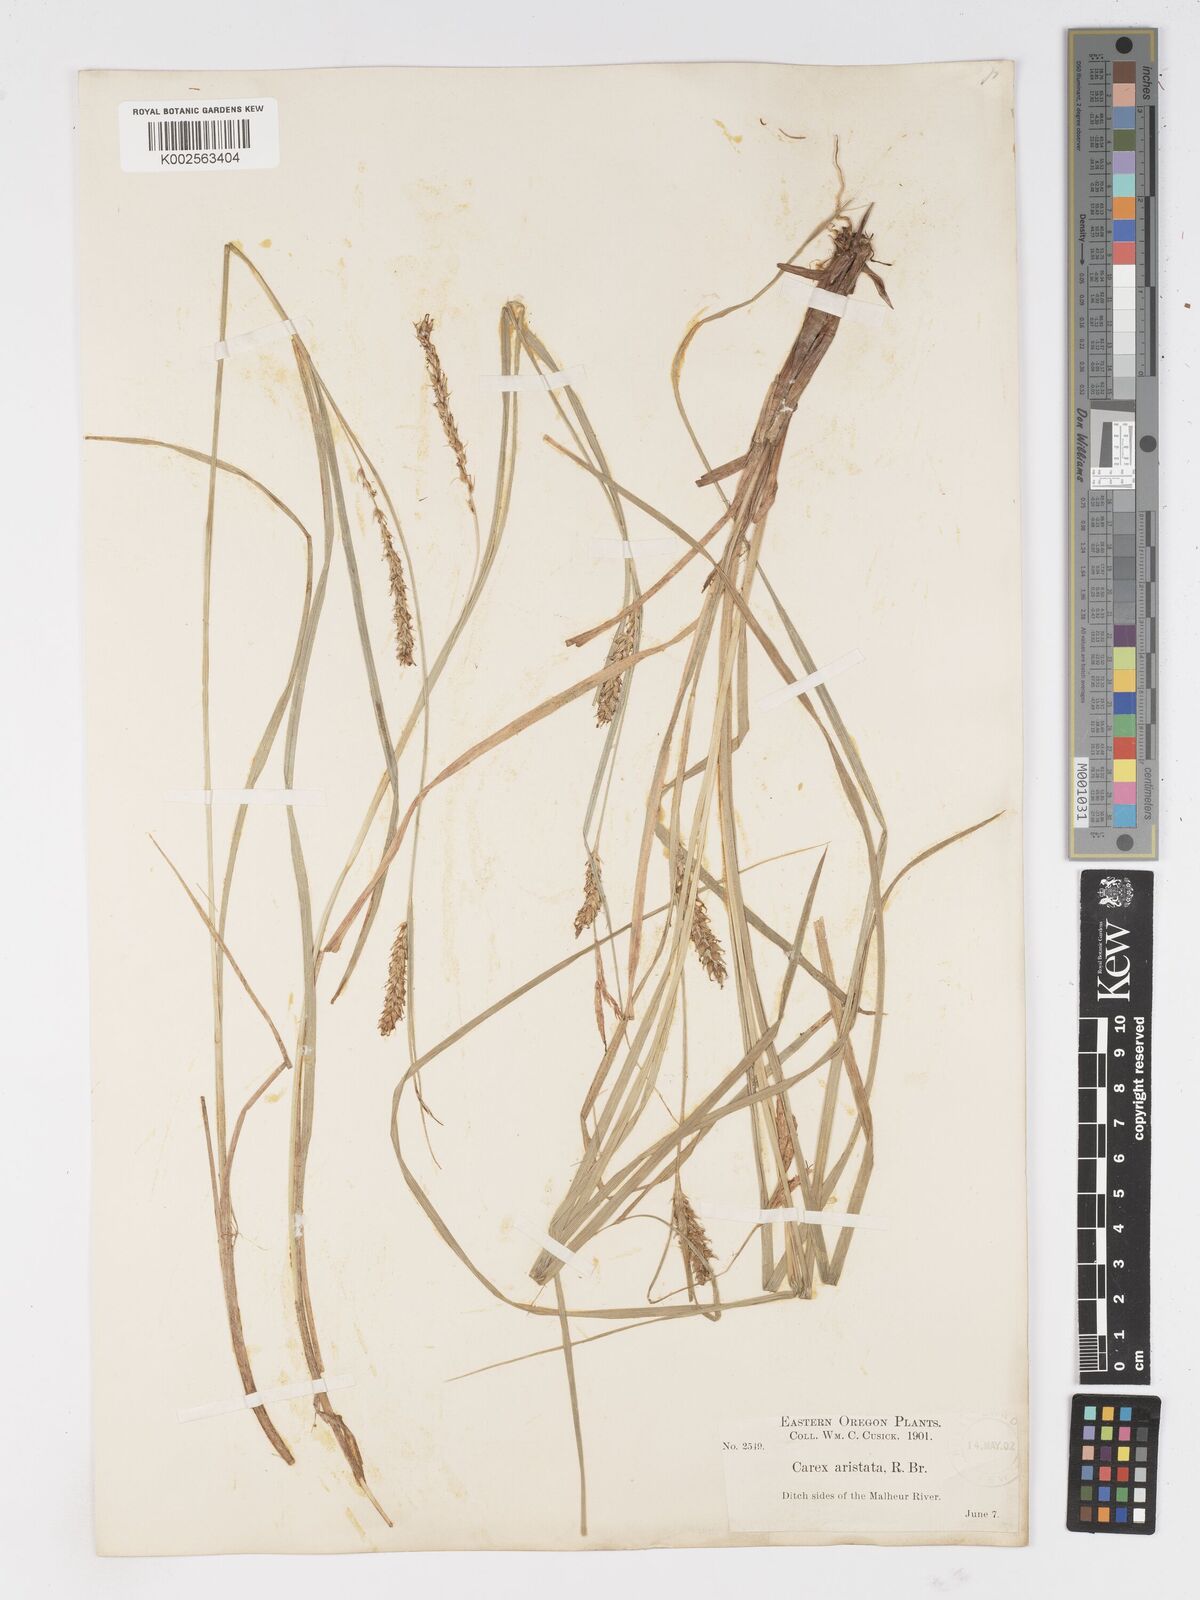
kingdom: Plantae
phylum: Tracheophyta
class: Liliopsida
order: Poales
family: Cyperaceae
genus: Carex
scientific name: Carex atherodes
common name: Wheat sedge
